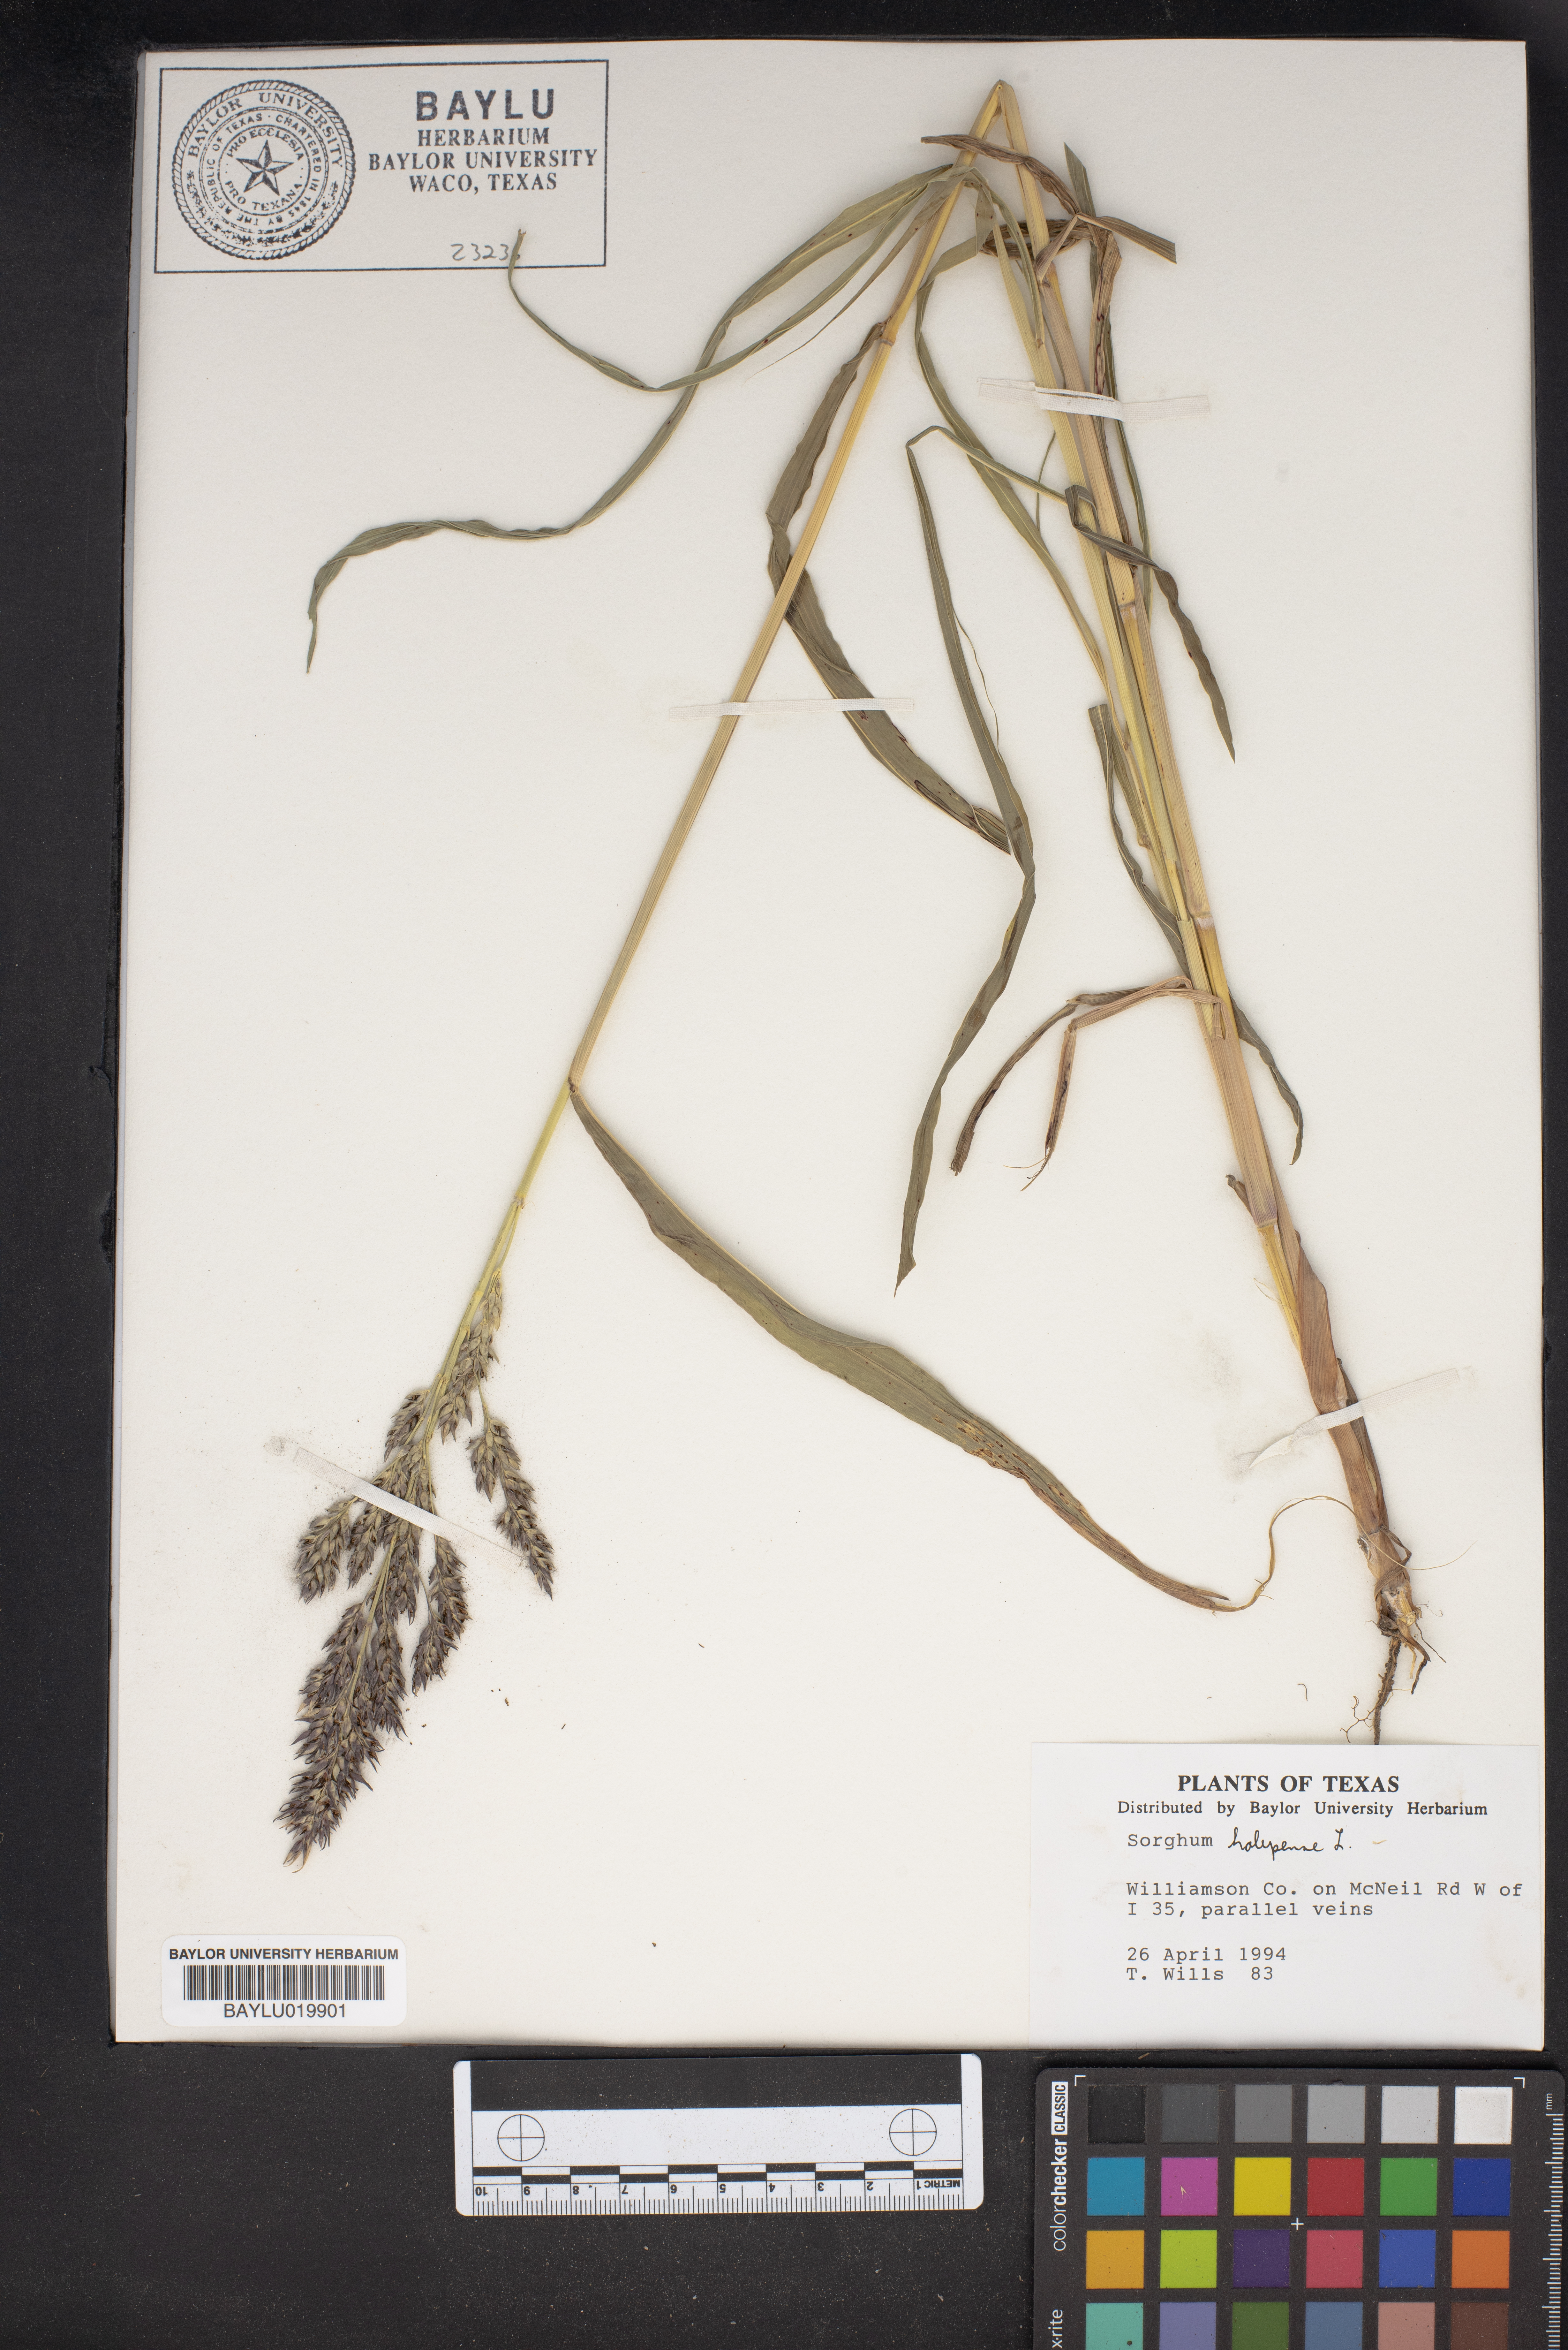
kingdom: Plantae
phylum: Tracheophyta
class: Liliopsida
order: Poales
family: Poaceae
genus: Sorghum
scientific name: Sorghum halepense
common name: Johnson-grass
